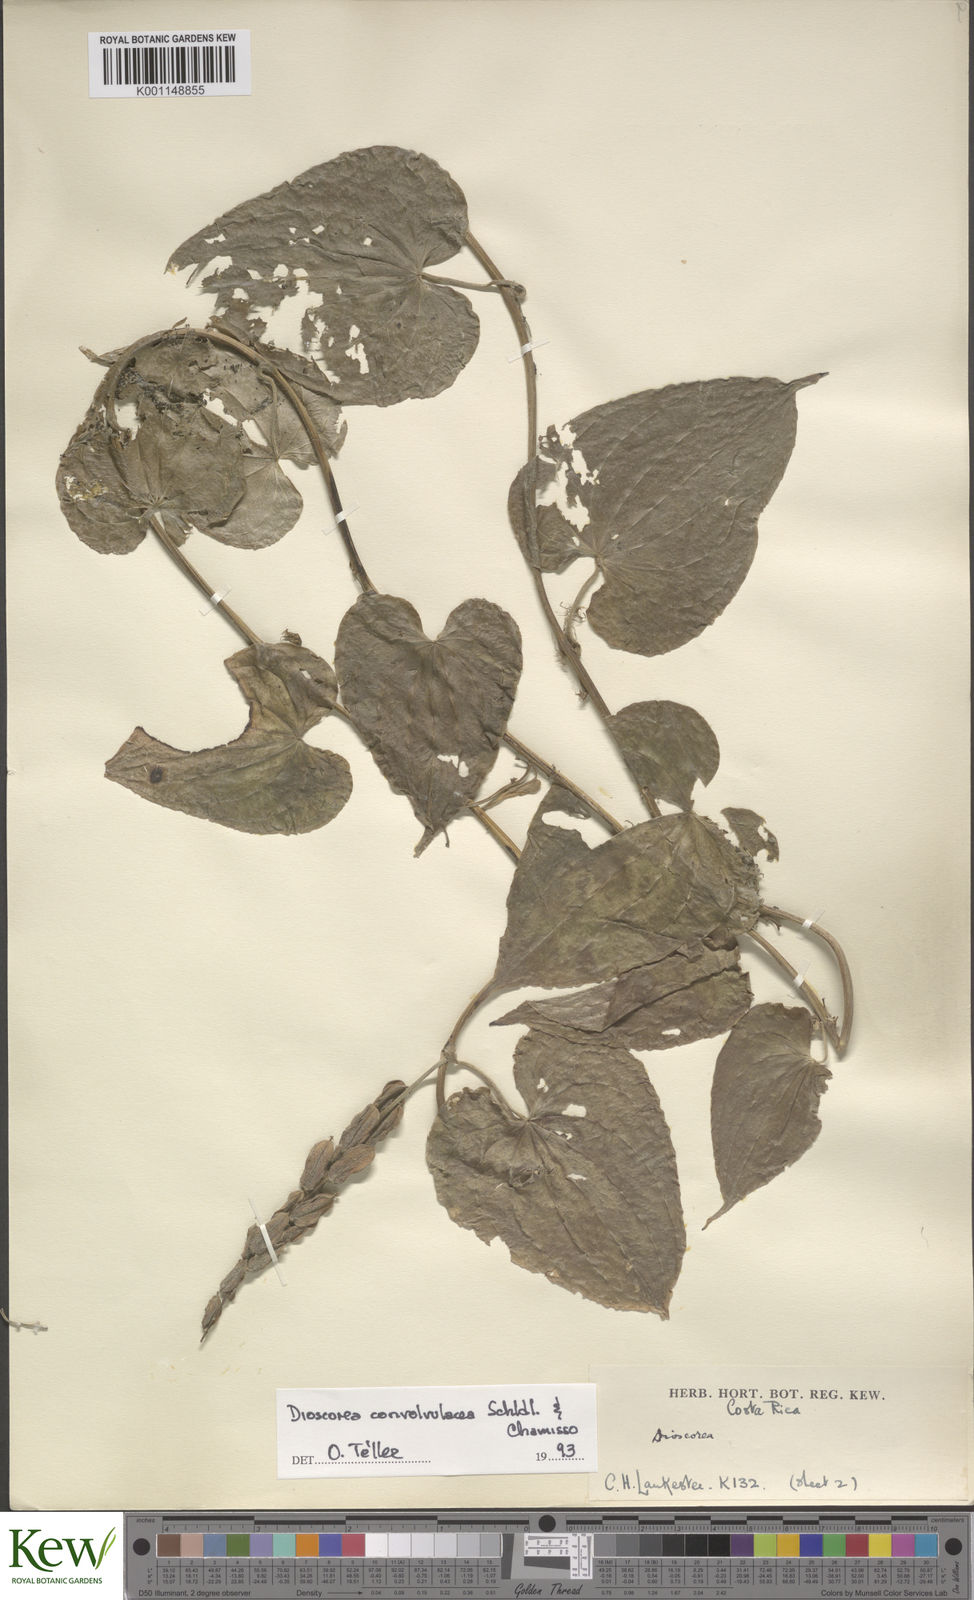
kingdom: Plantae
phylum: Tracheophyta
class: Liliopsida
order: Dioscoreales
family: Dioscoreaceae
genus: Dioscorea
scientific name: Dioscorea convolvulacea
